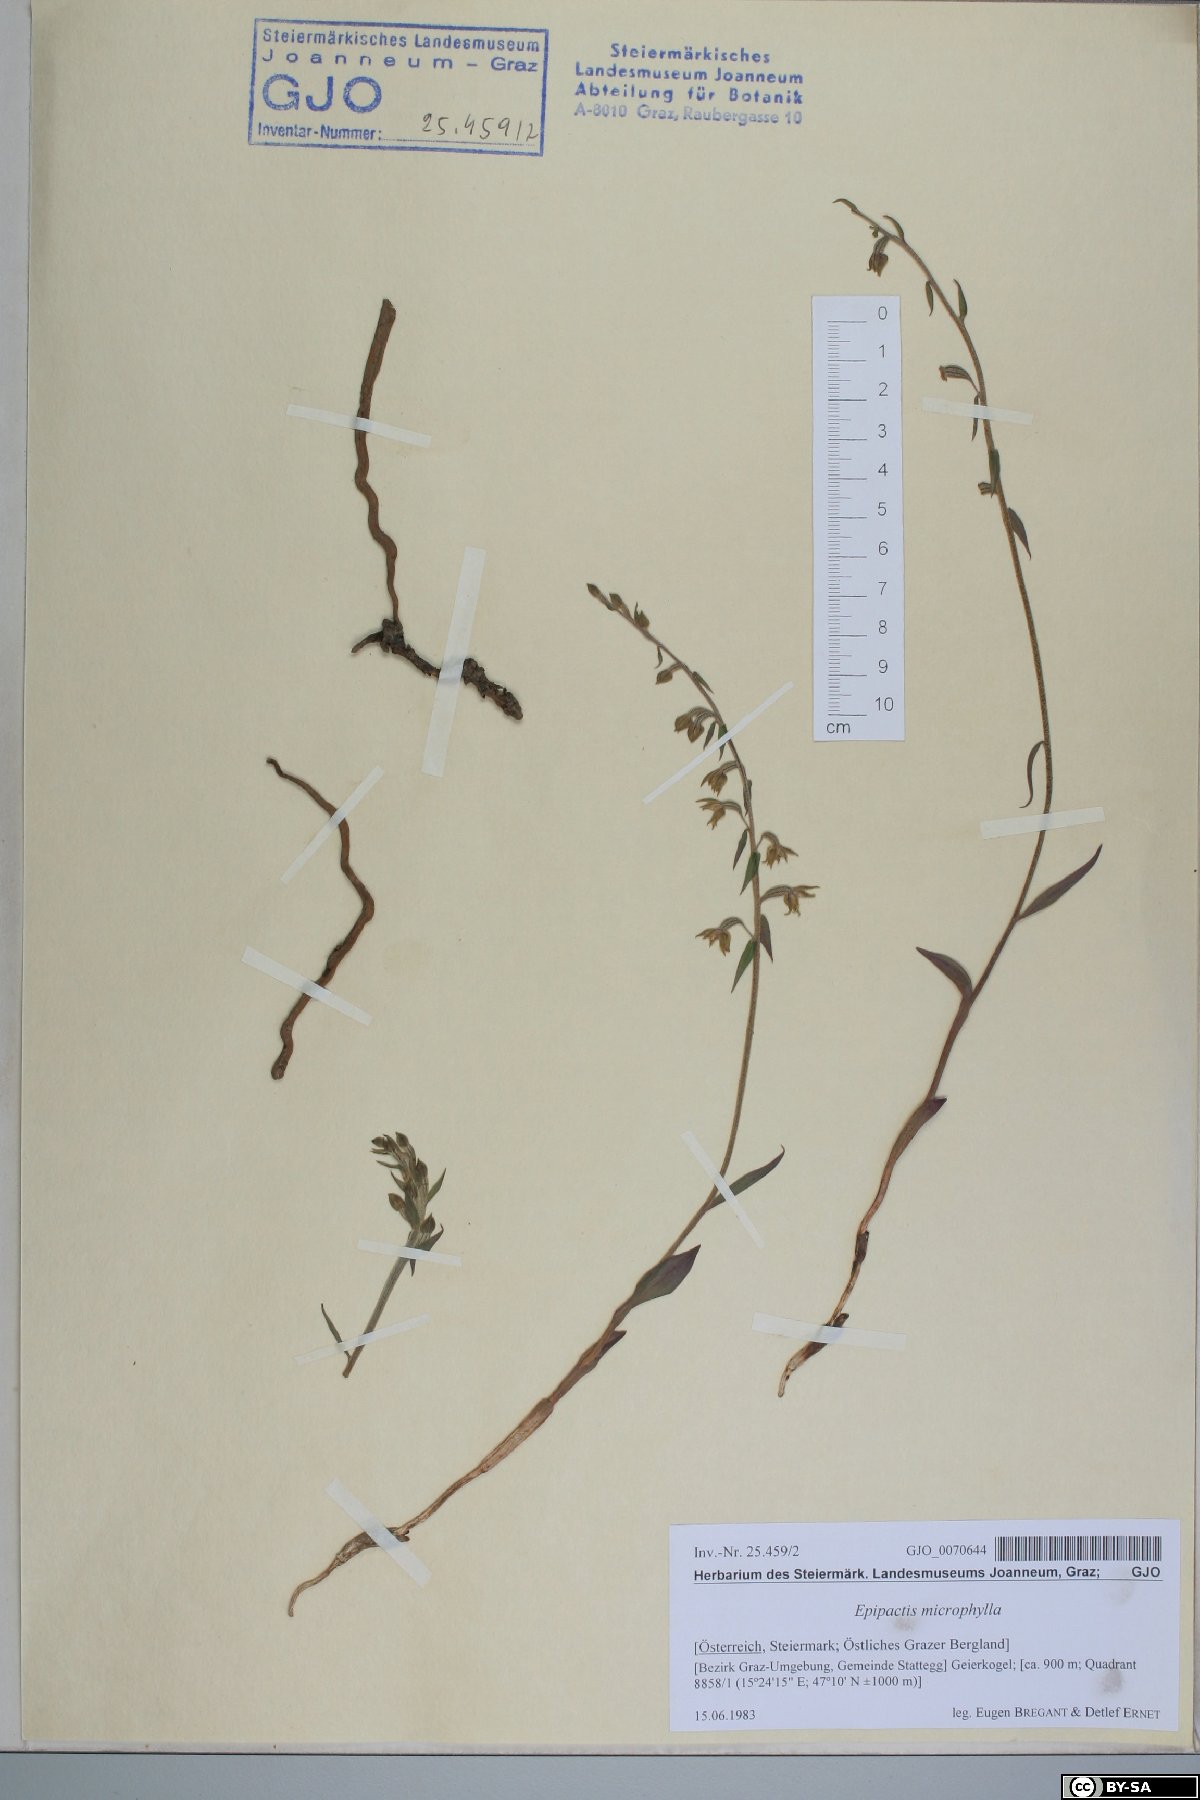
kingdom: Plantae
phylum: Tracheophyta
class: Liliopsida
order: Asparagales
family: Orchidaceae
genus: Epipactis
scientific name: Epipactis microphylla
